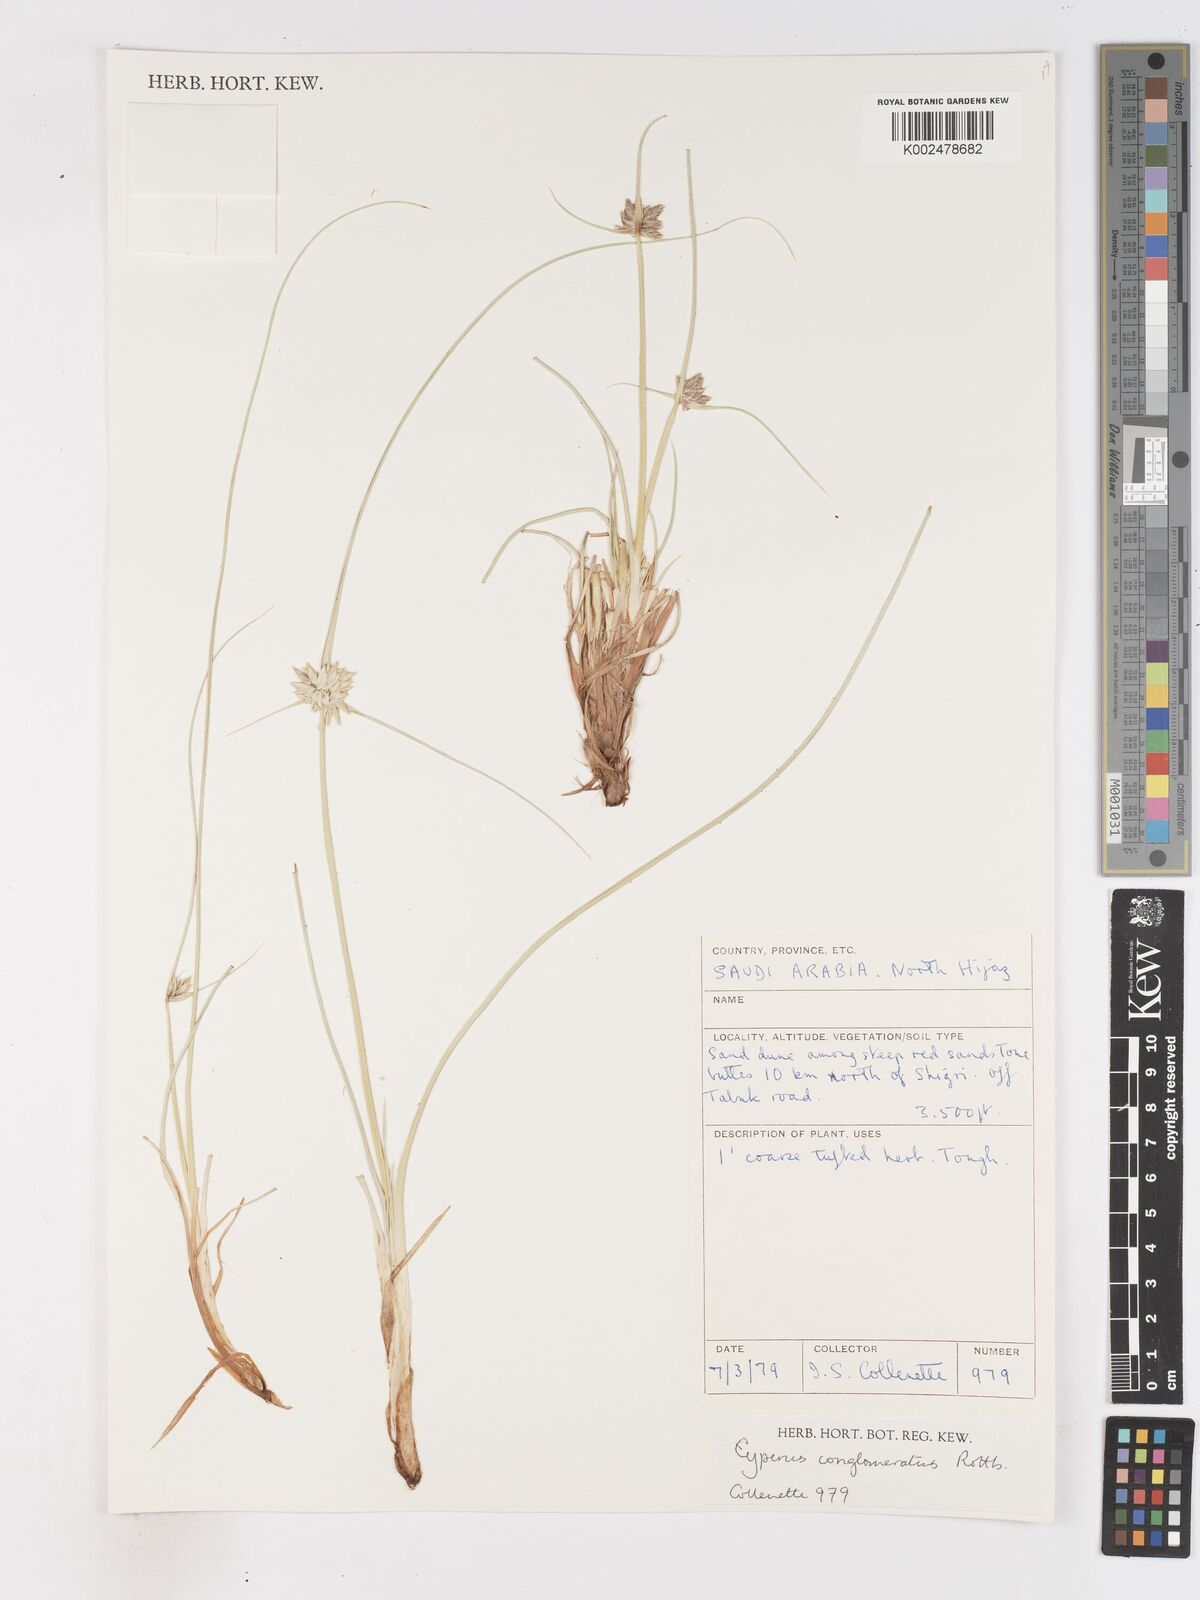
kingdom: Plantae
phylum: Tracheophyta
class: Liliopsida
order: Poales
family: Cyperaceae
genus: Cyperus
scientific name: Cyperus conglomeratus
